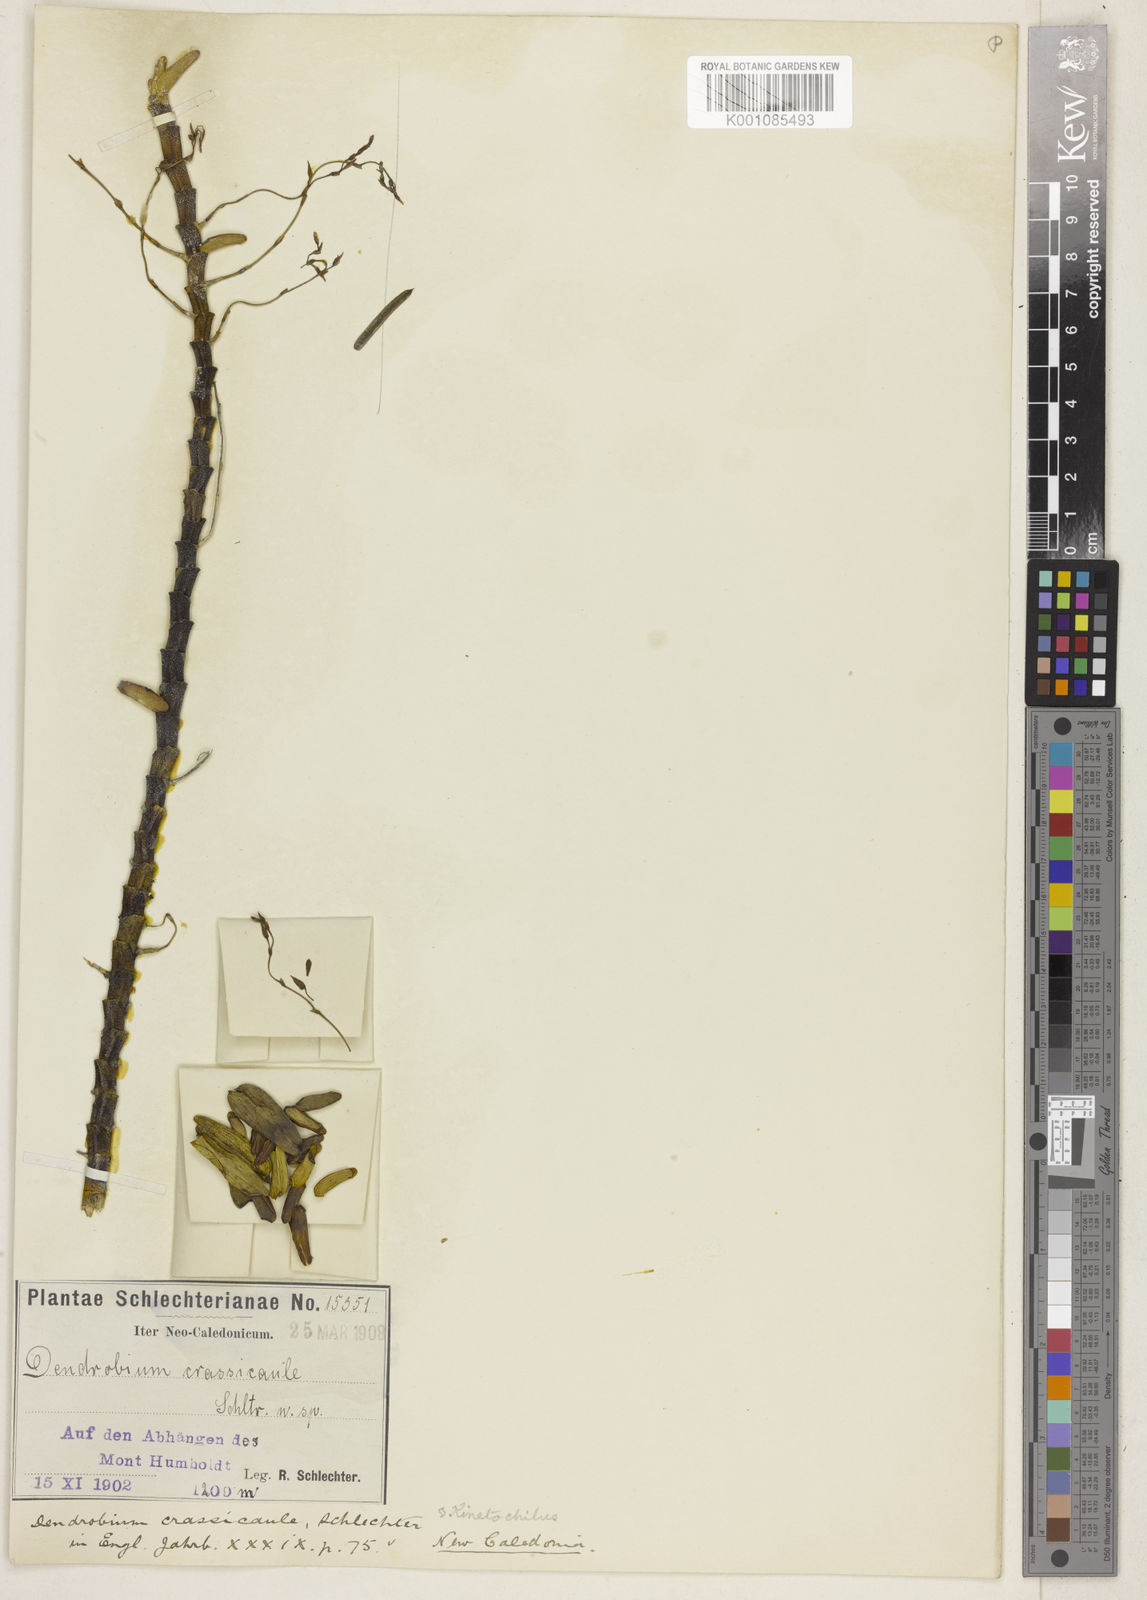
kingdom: Plantae
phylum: Tracheophyta
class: Liliopsida
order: Asparagales
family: Orchidaceae
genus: Dendrobium
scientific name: Dendrobium
